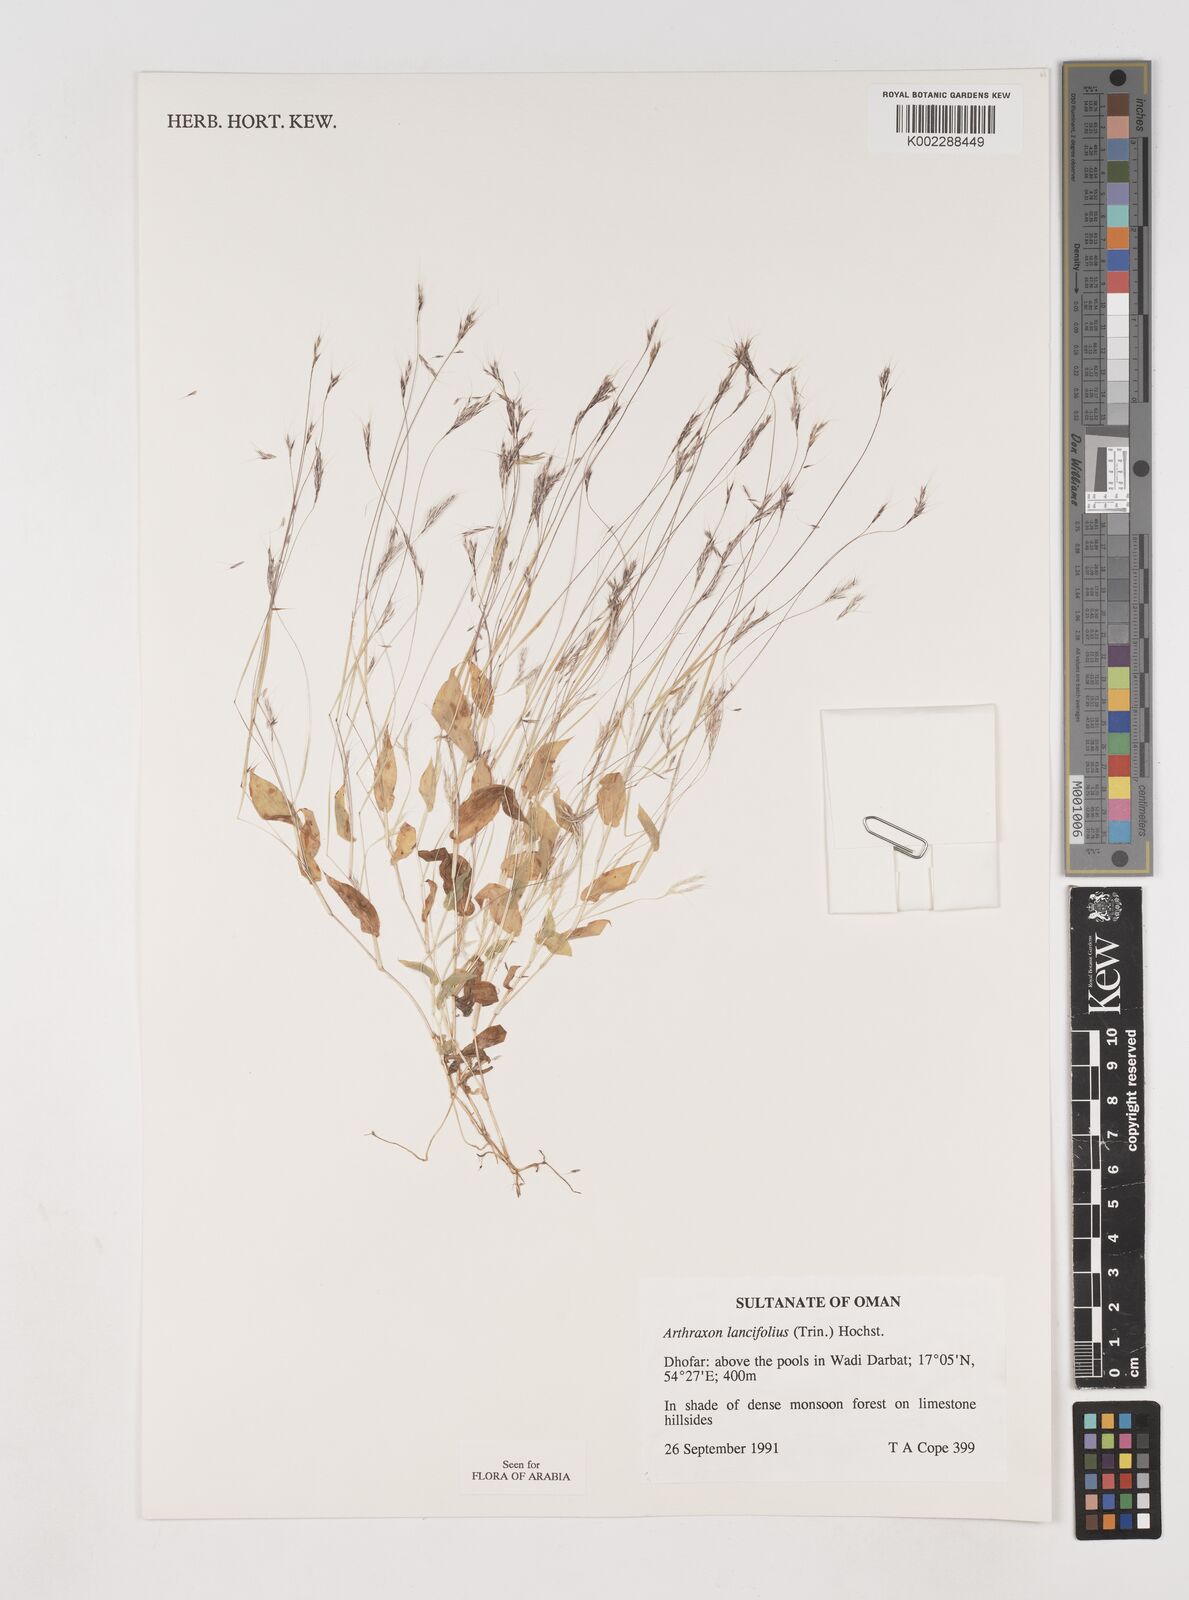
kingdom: Plantae
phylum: Tracheophyta
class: Liliopsida
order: Poales
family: Poaceae
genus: Arthraxon
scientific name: Arthraxon lancifolius
